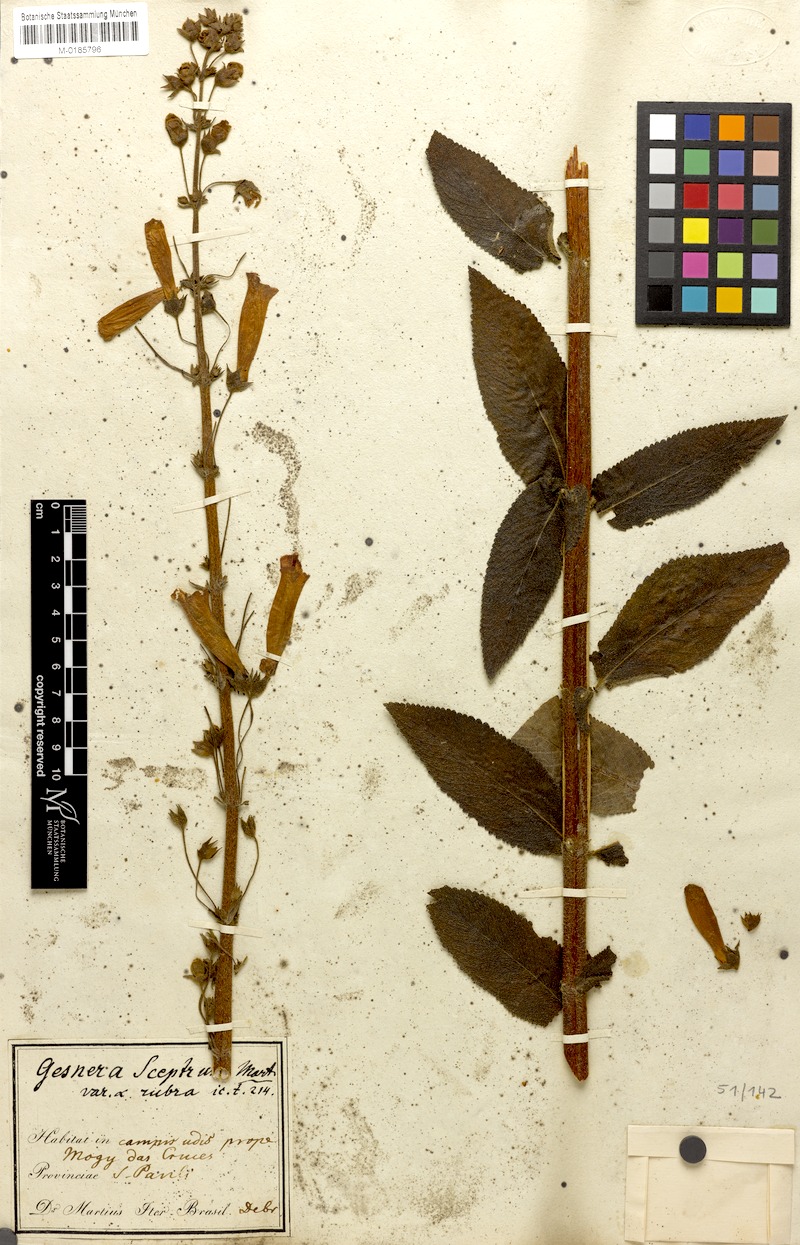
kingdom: Plantae
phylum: Tracheophyta
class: Magnoliopsida
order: Lamiales
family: Gesneriaceae
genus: Sinningia
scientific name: Sinningia sceptrum
